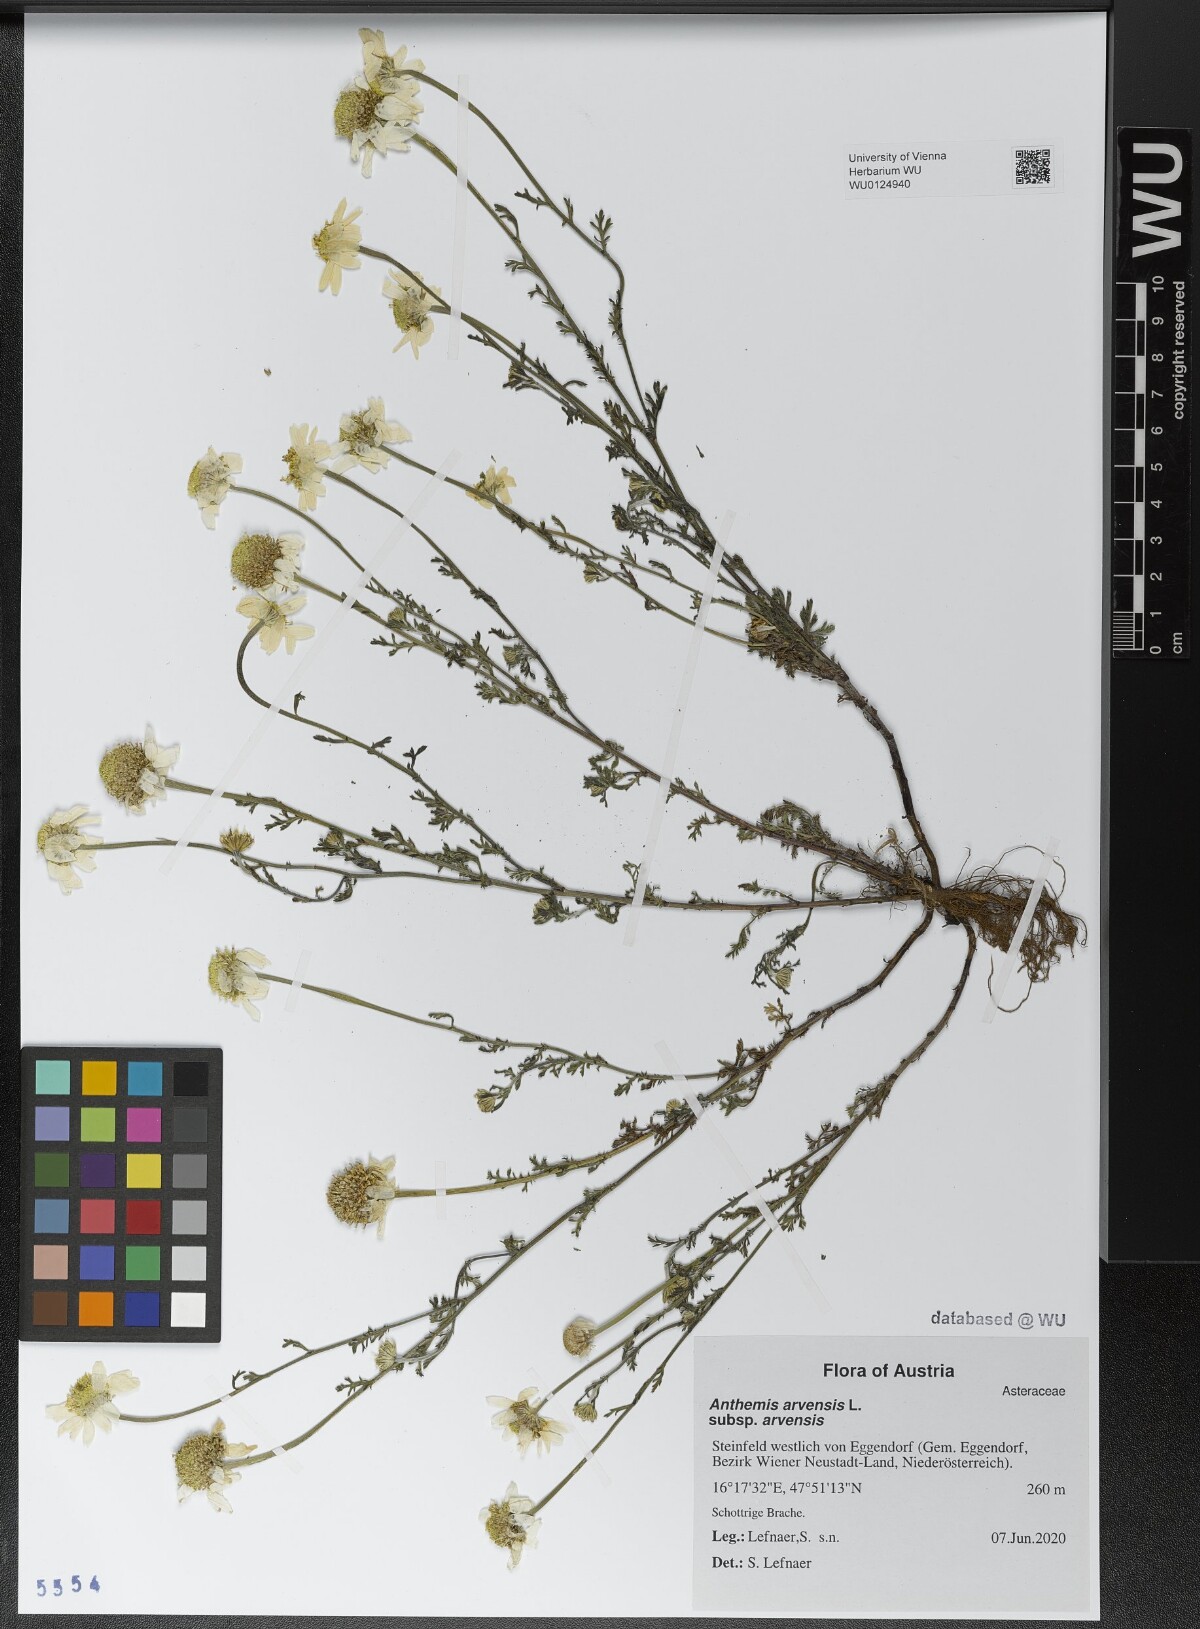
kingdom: Plantae
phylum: Tracheophyta
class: Magnoliopsida
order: Asterales
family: Asteraceae
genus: Anthemis
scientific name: Anthemis arvensis
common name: Corn chamomile
